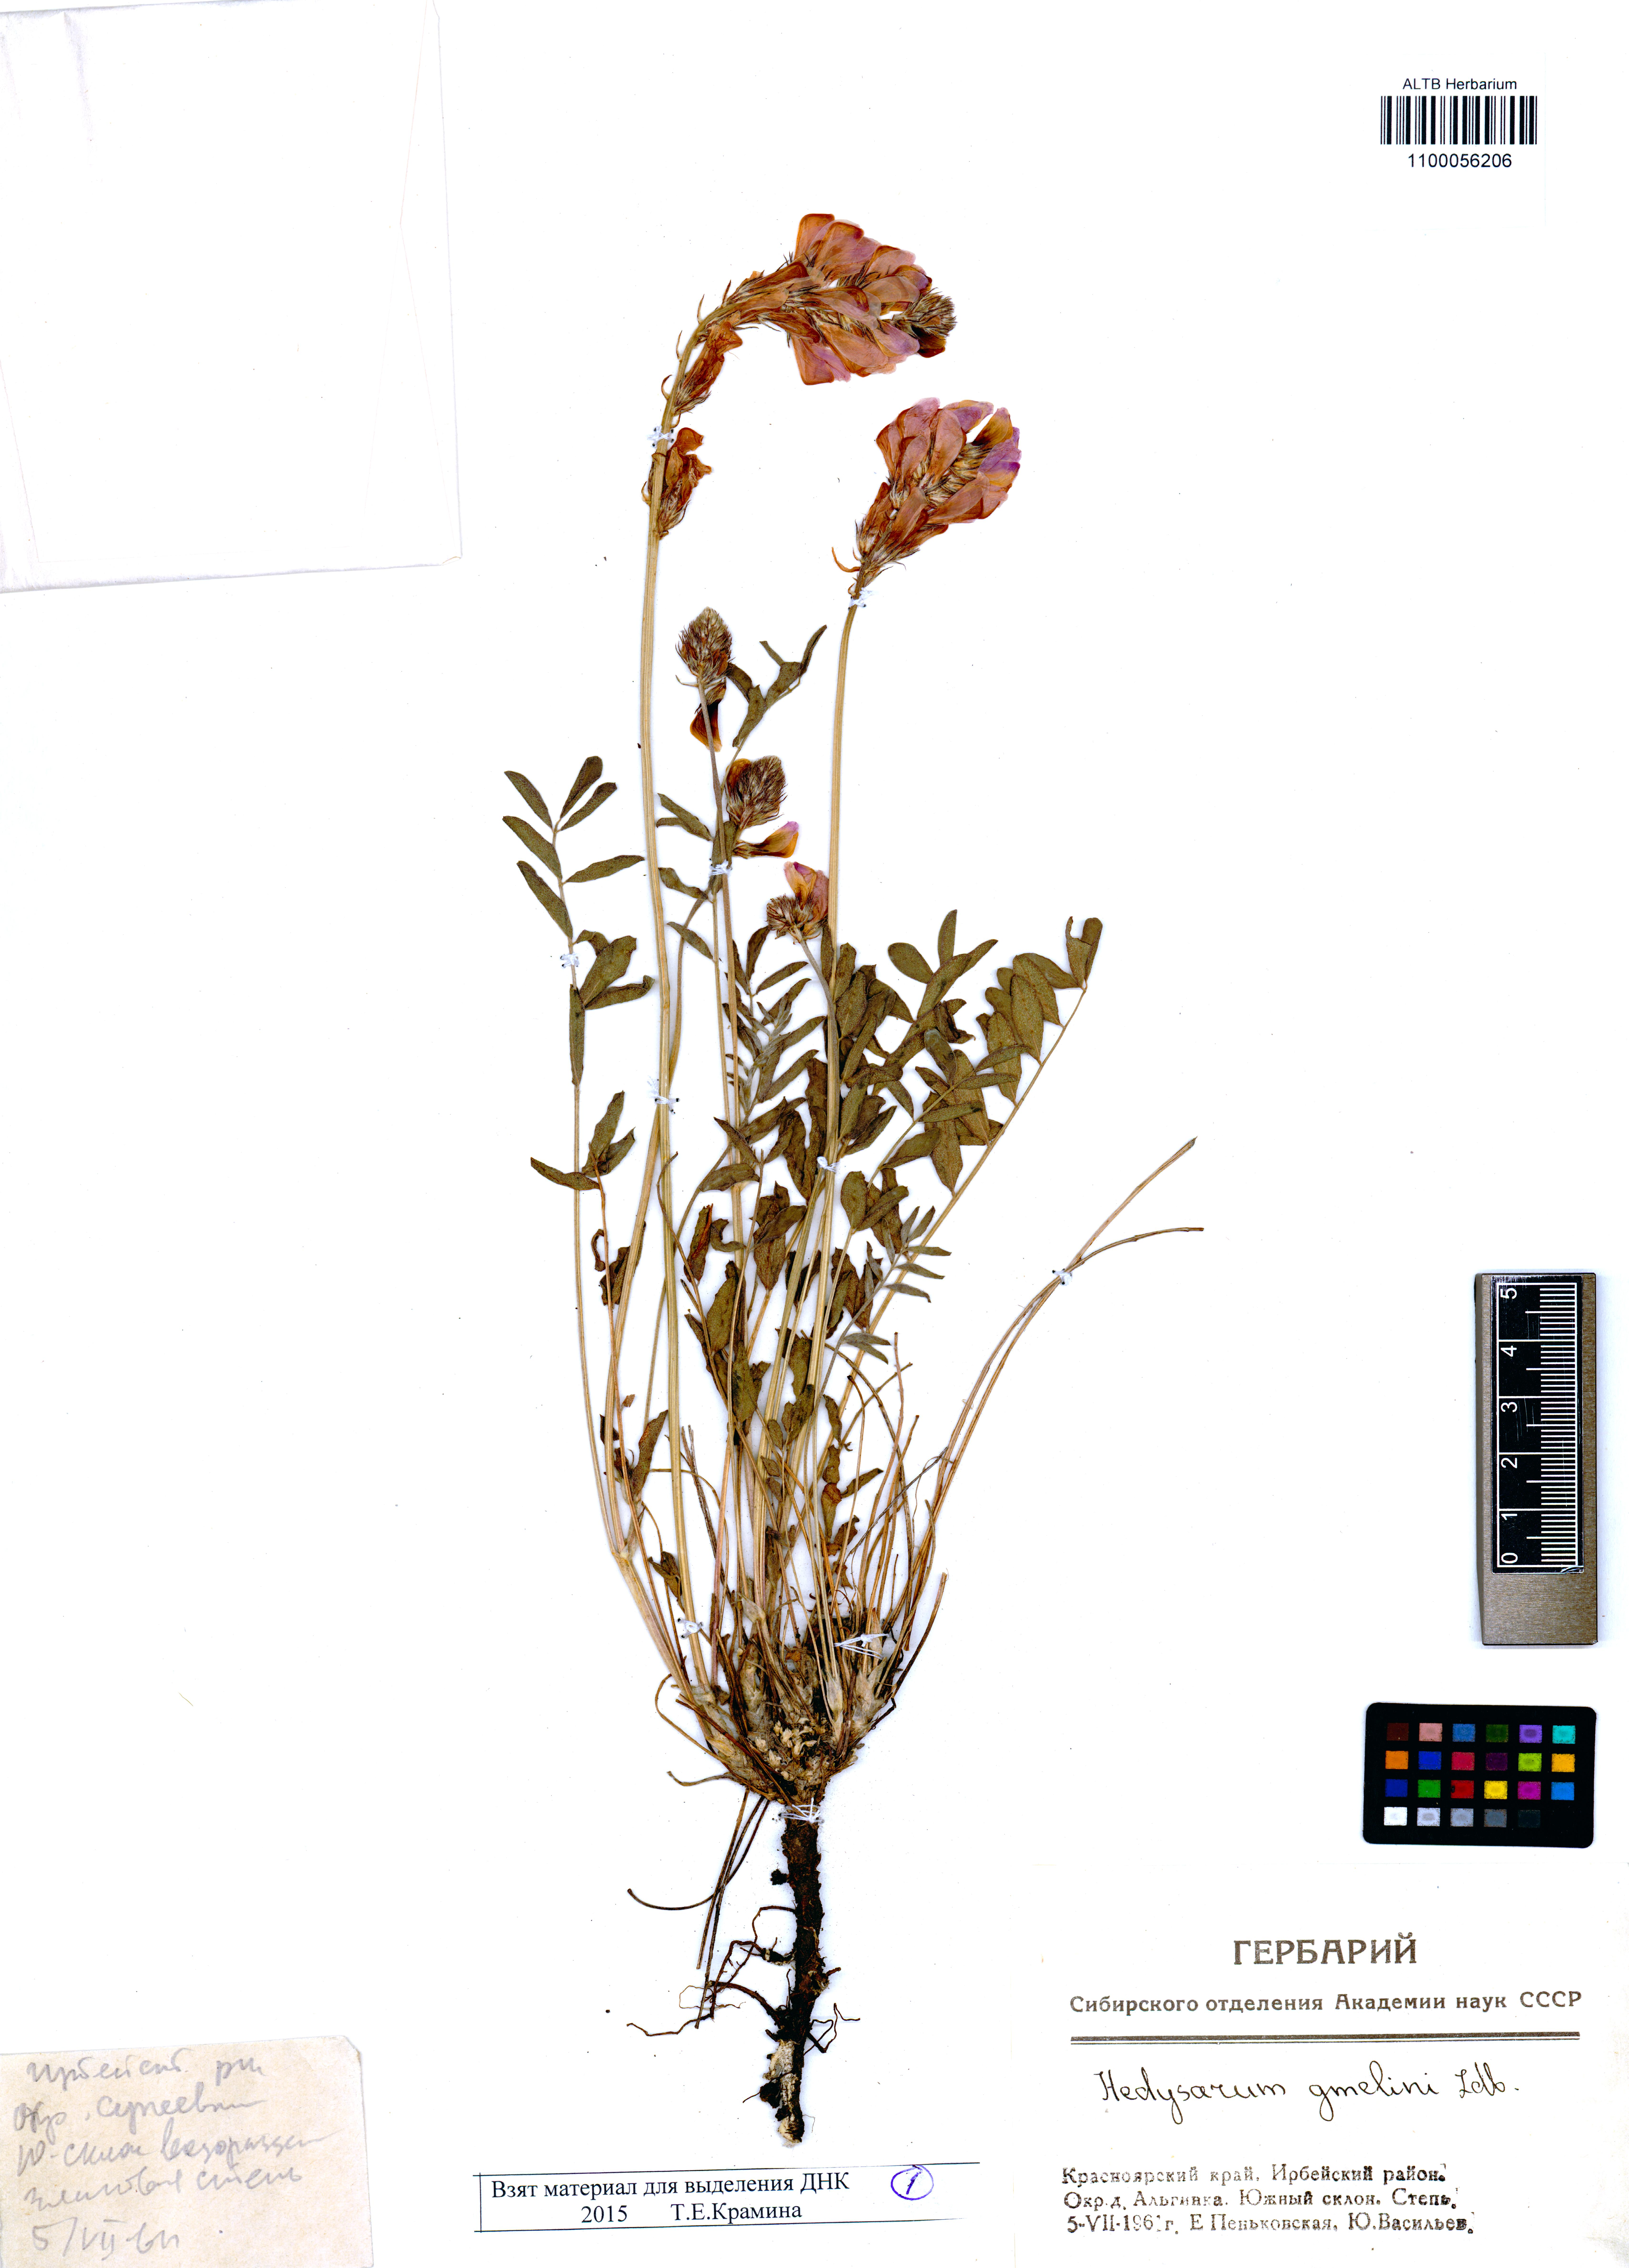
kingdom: Plantae
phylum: Tracheophyta
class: Magnoliopsida
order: Fabales
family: Fabaceae
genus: Hedysarum
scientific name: Hedysarum gmelinii
